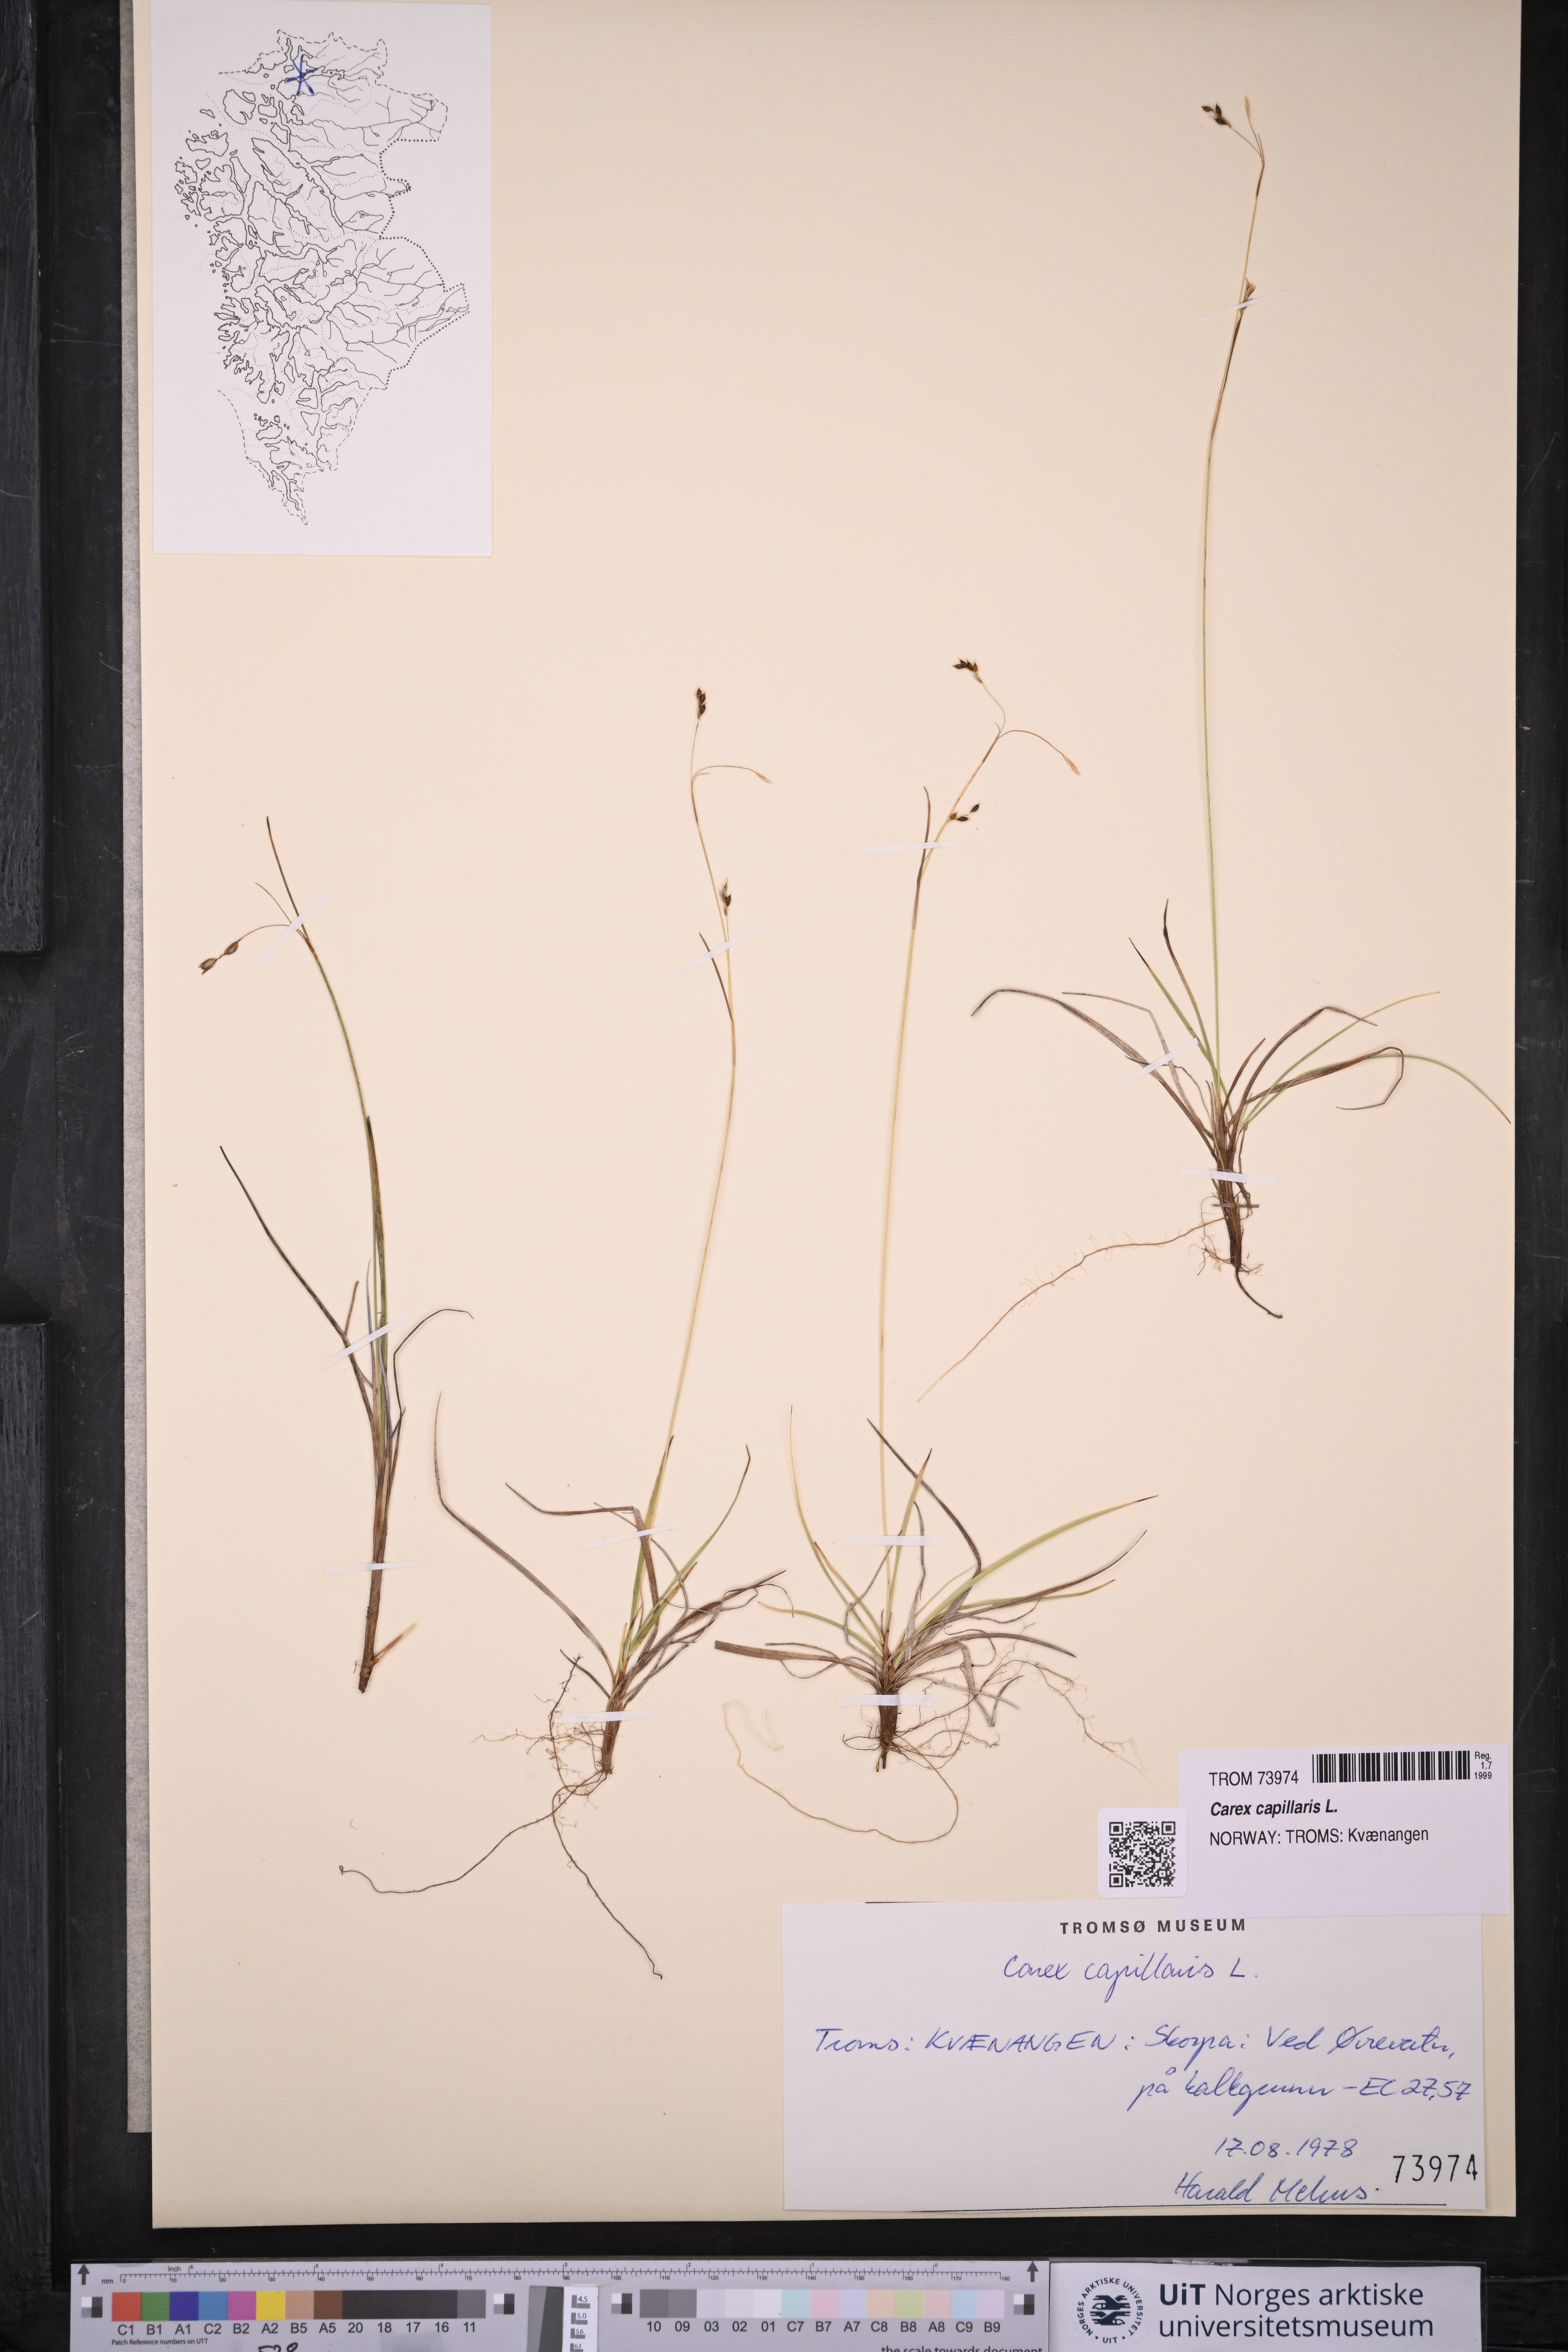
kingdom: Plantae
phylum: Tracheophyta
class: Liliopsida
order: Poales
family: Cyperaceae
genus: Carex
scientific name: Carex capillaris
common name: Hair sedge
